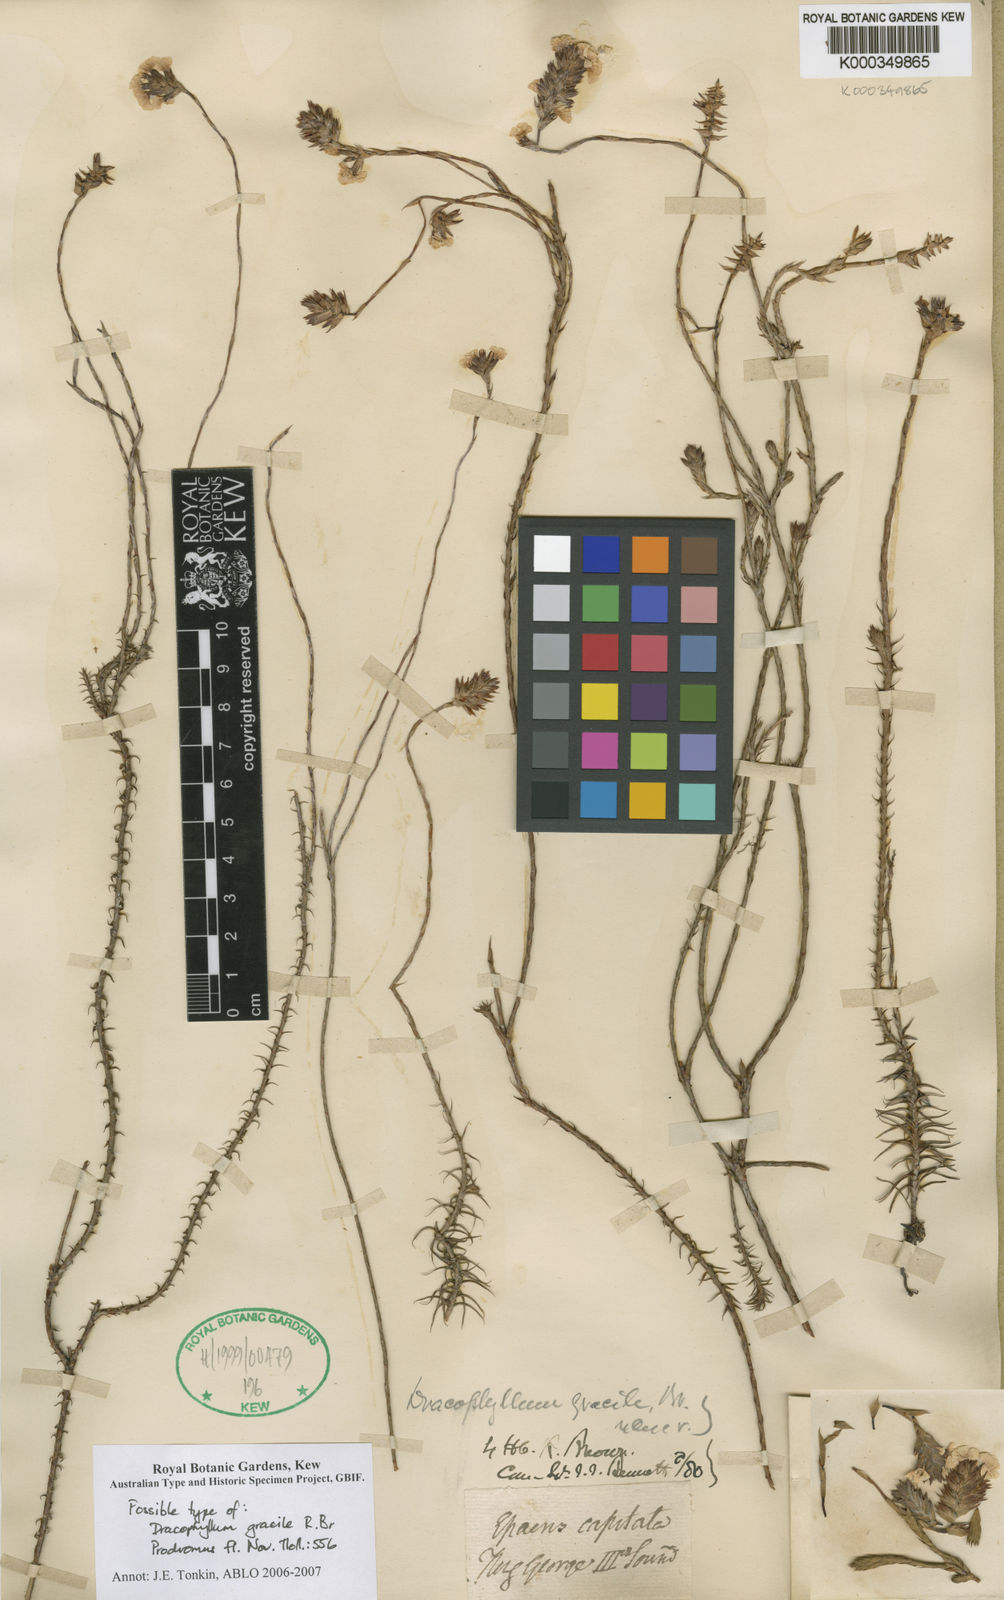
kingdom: Plantae
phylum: Tracheophyta
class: Magnoliopsida
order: Ericales
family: Ericaceae
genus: Dracophyllum
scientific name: Dracophyllum cosmelioides
